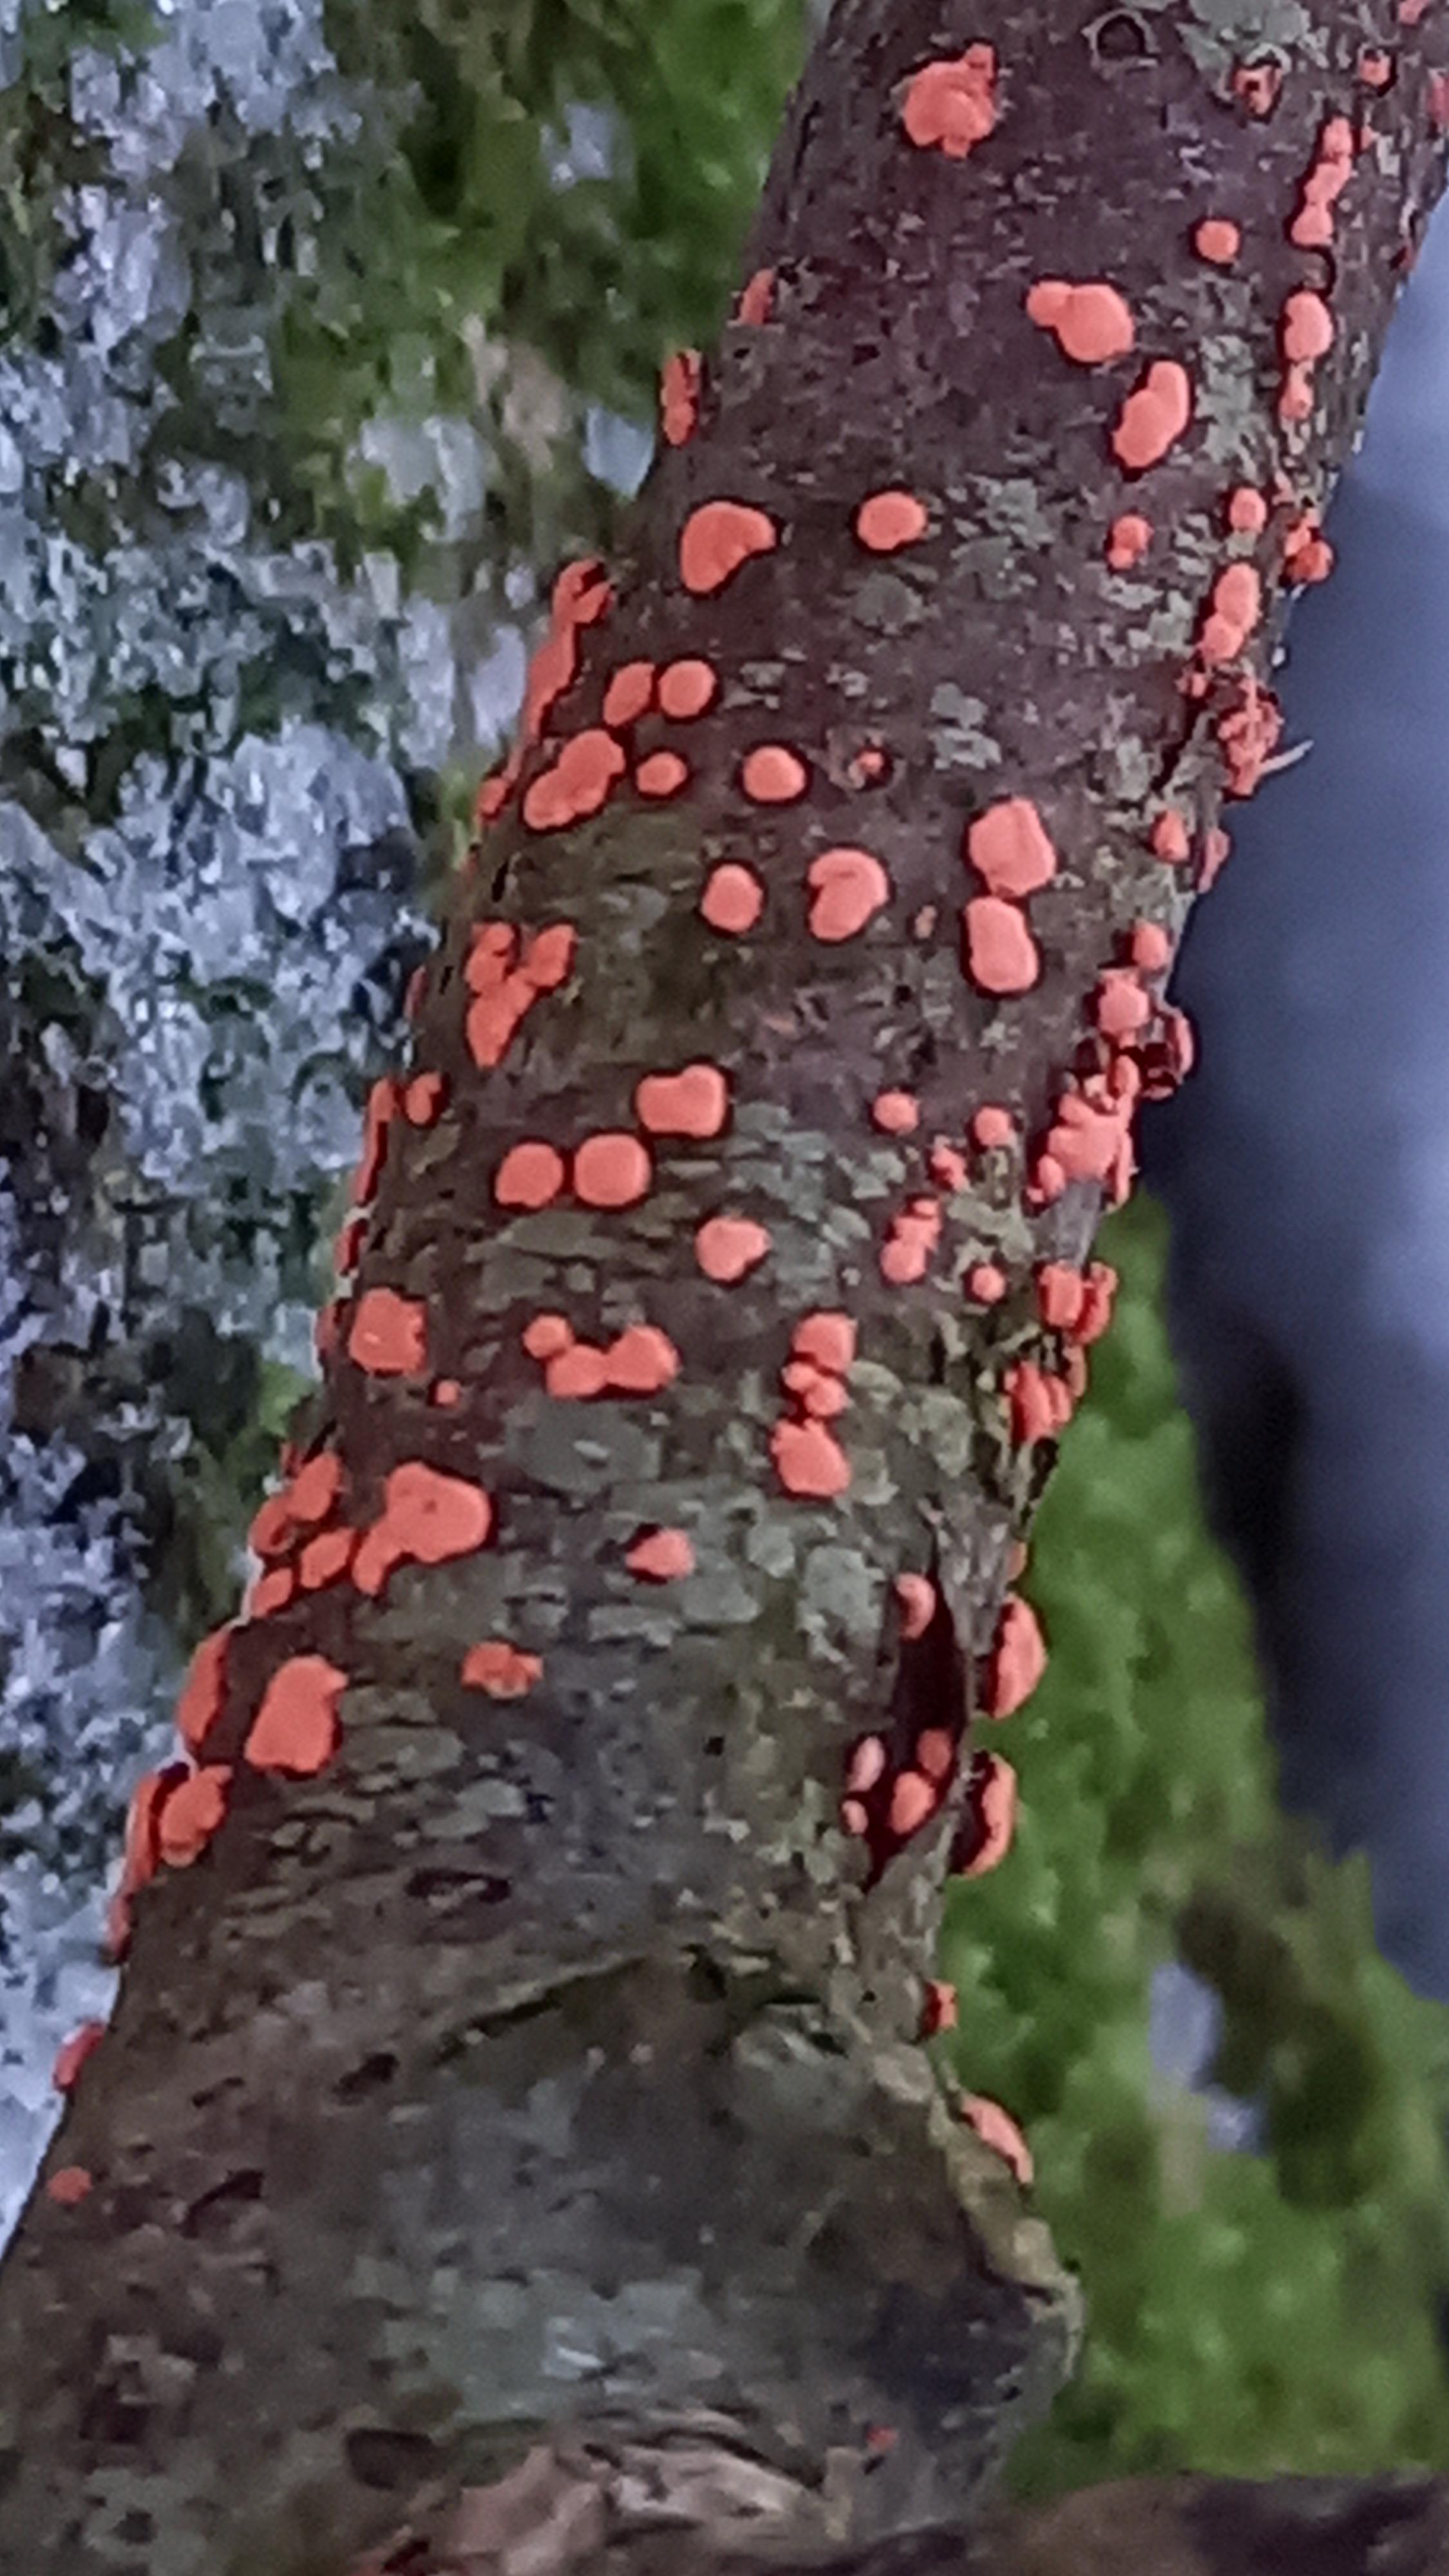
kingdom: Fungi
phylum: Ascomycota
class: Sordariomycetes
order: Hypocreales
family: Nectriaceae
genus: Nectria
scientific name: Nectria cinnabarina
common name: almindelig cinnobersvamp
